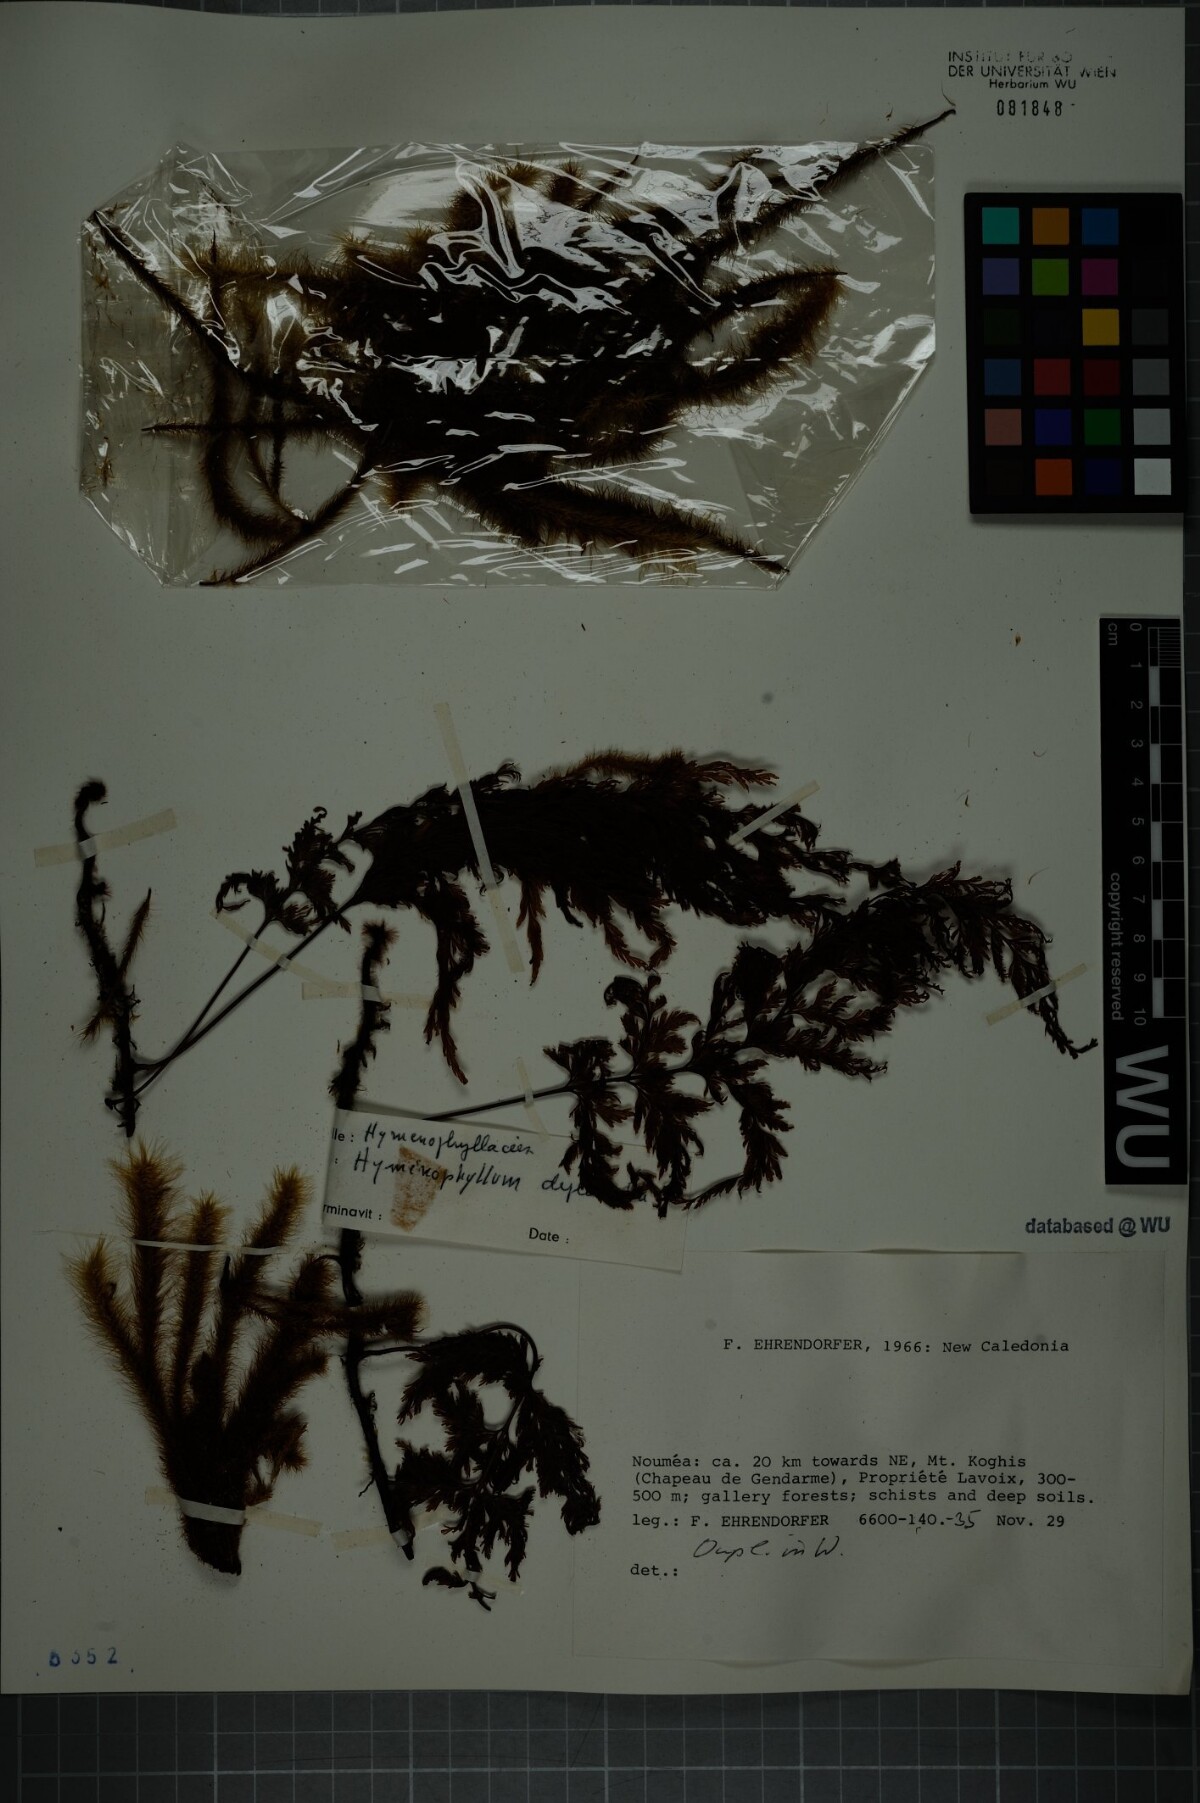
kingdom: Plantae
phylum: Tracheophyta
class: Polypodiopsida
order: Hymenophyllales
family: Hymenophyllaceae
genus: Hymenophyllum
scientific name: Hymenophyllum deplanchei
